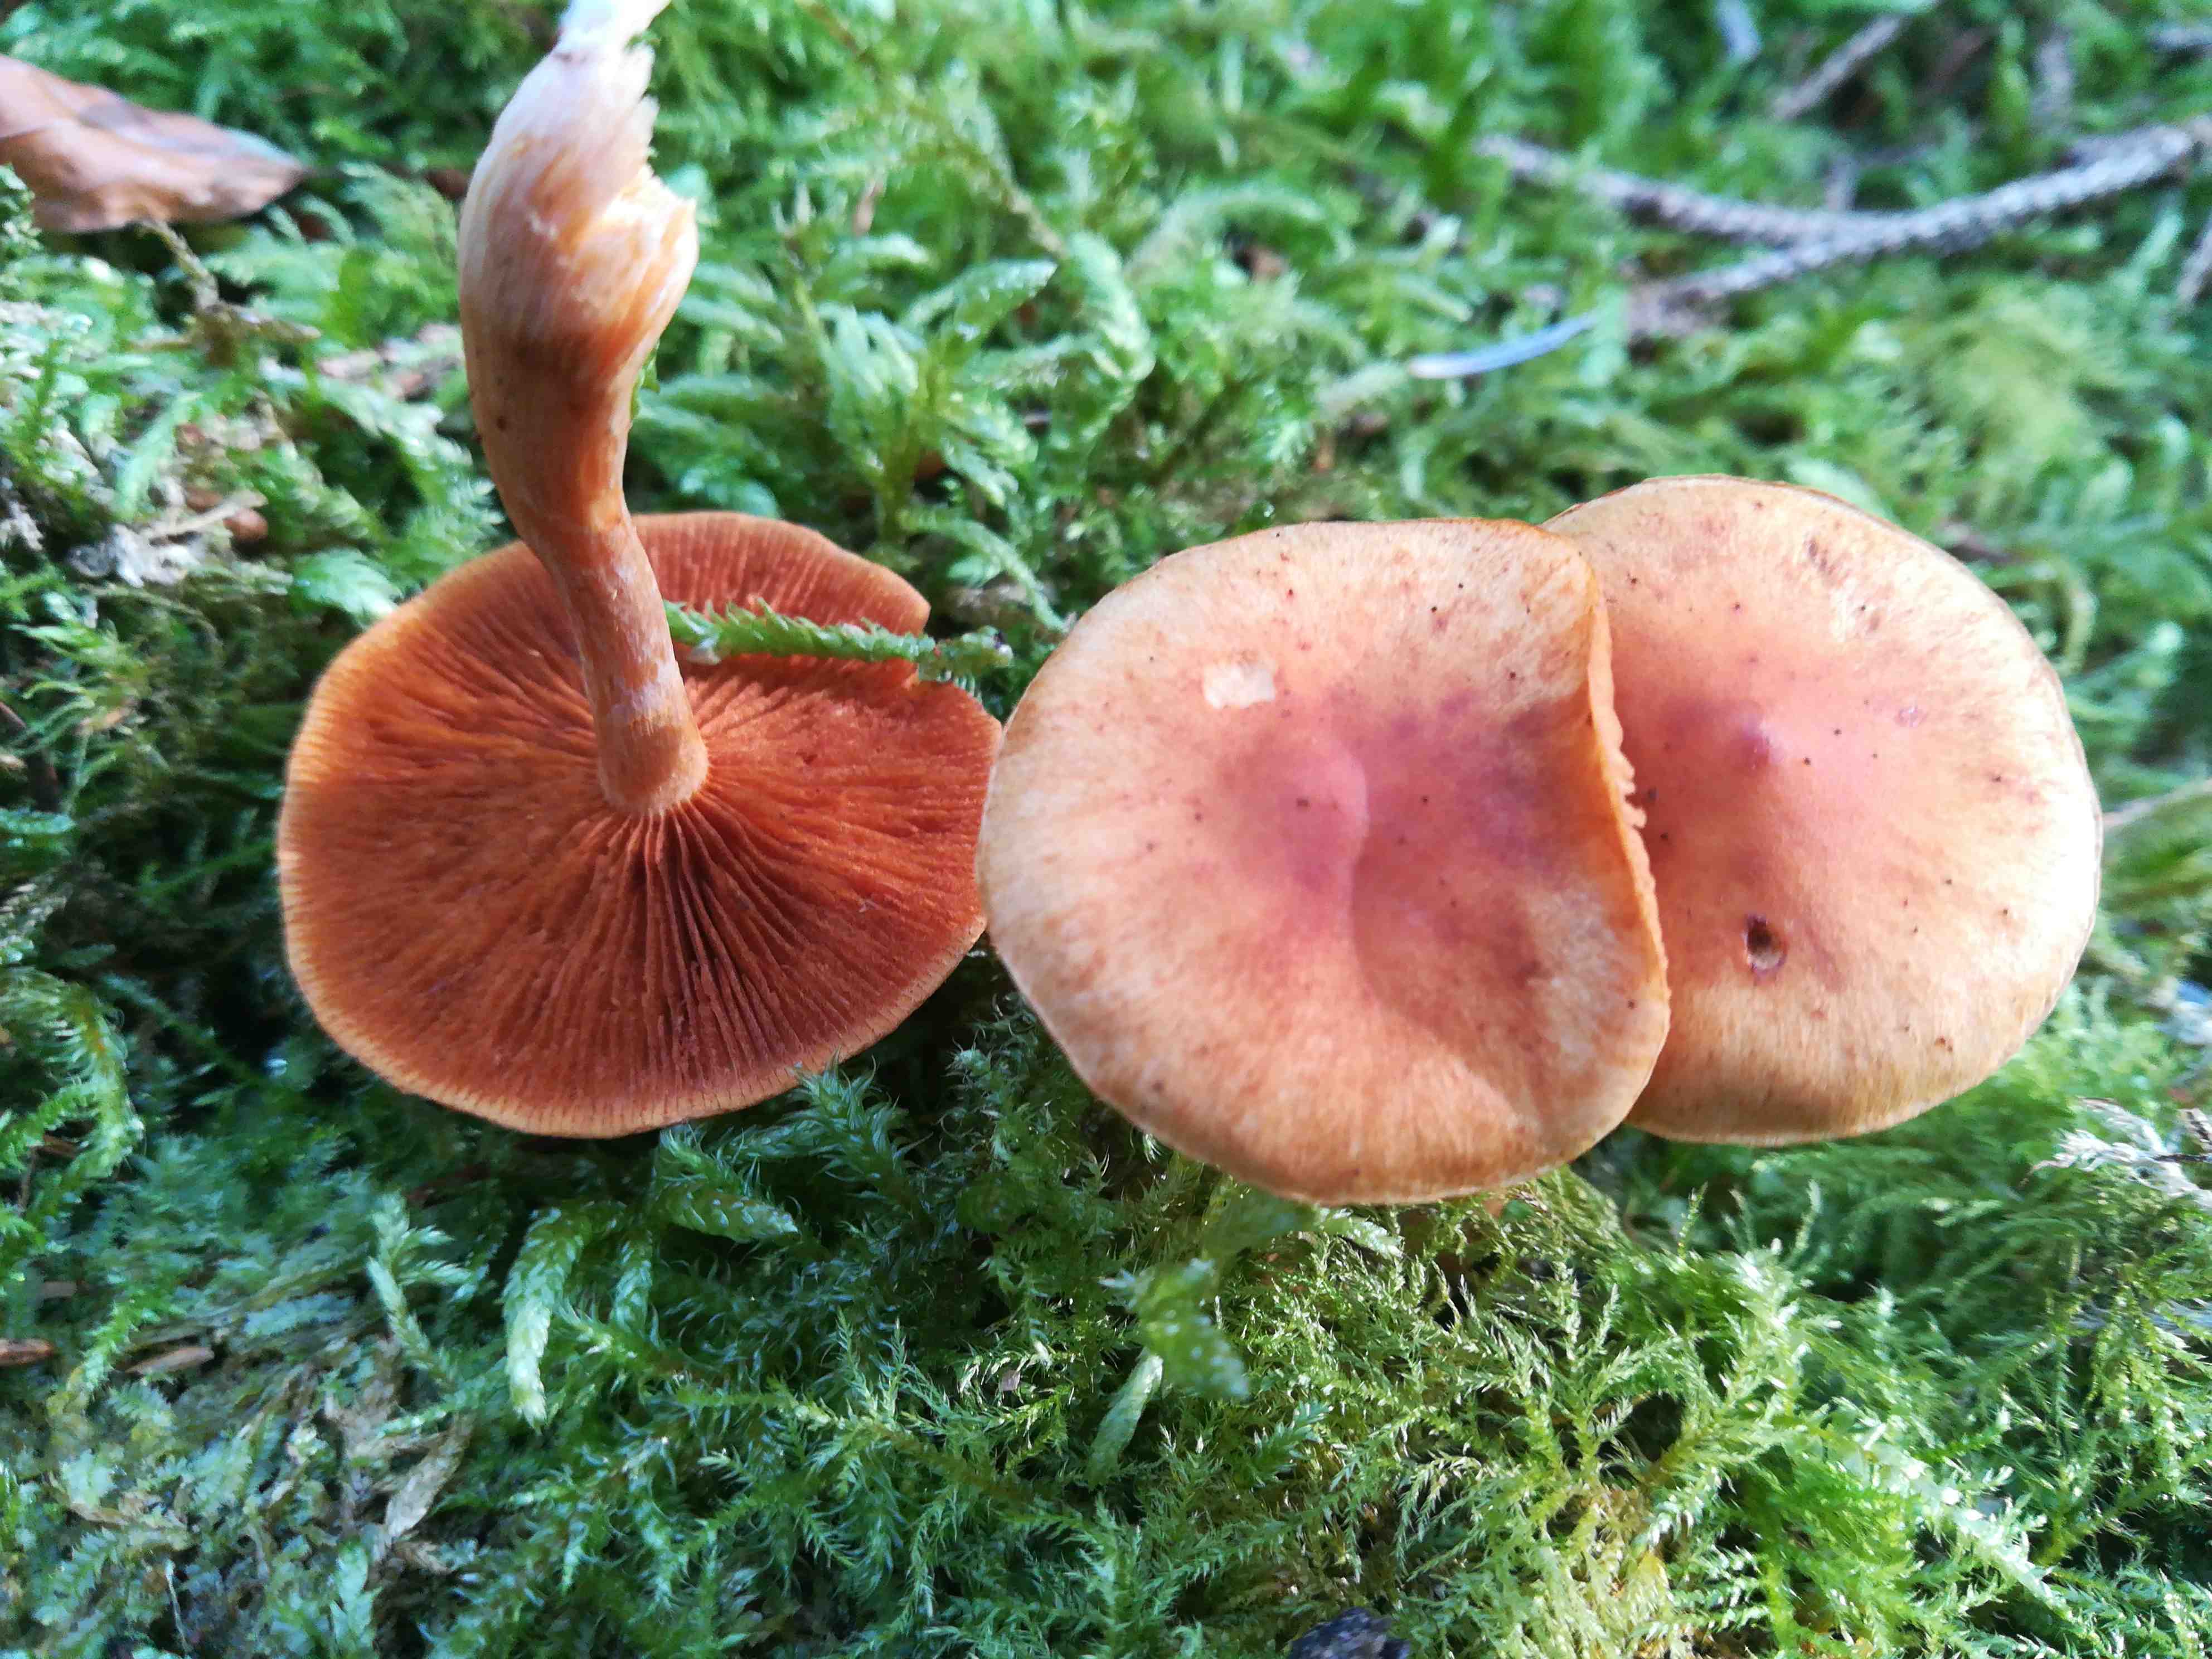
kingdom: Fungi
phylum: Basidiomycota
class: Agaricomycetes
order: Agaricales
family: Hymenogastraceae
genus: Gymnopilus
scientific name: Gymnopilus penetrans
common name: plettet flammehat
